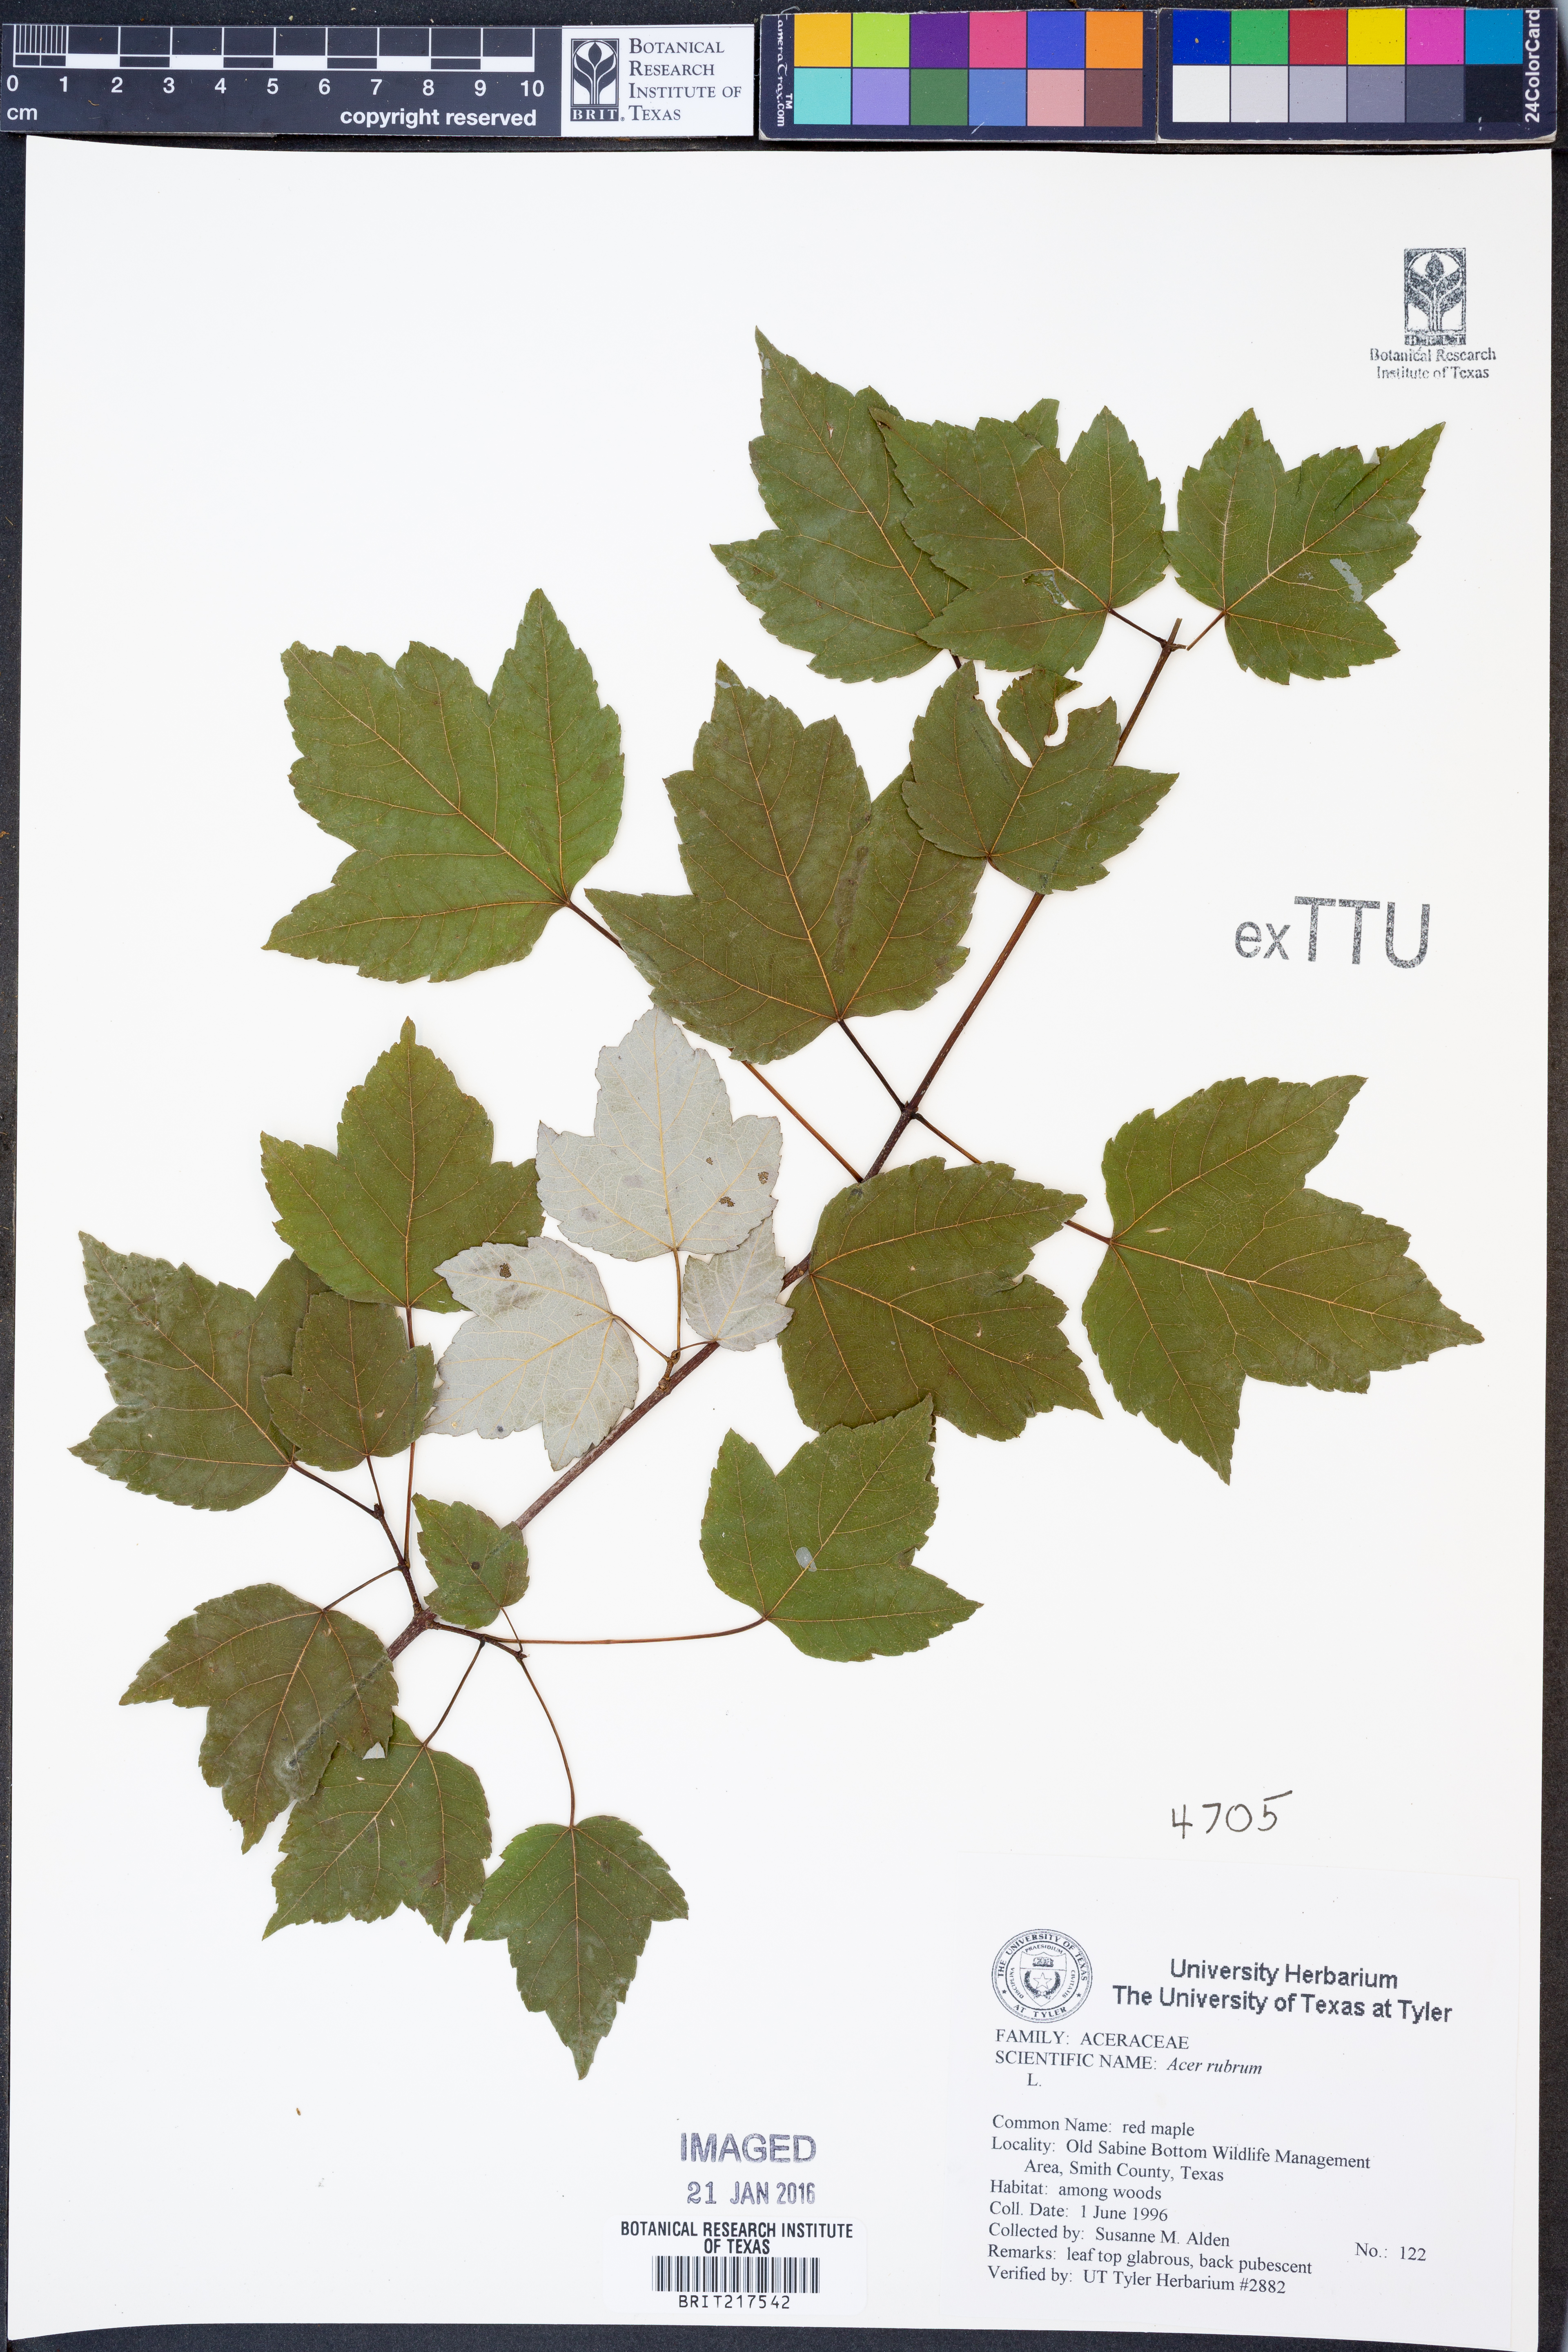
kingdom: Plantae
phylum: Tracheophyta
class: Magnoliopsida
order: Sapindales
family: Sapindaceae
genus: Acer
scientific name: Acer rubrum
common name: Red maple
